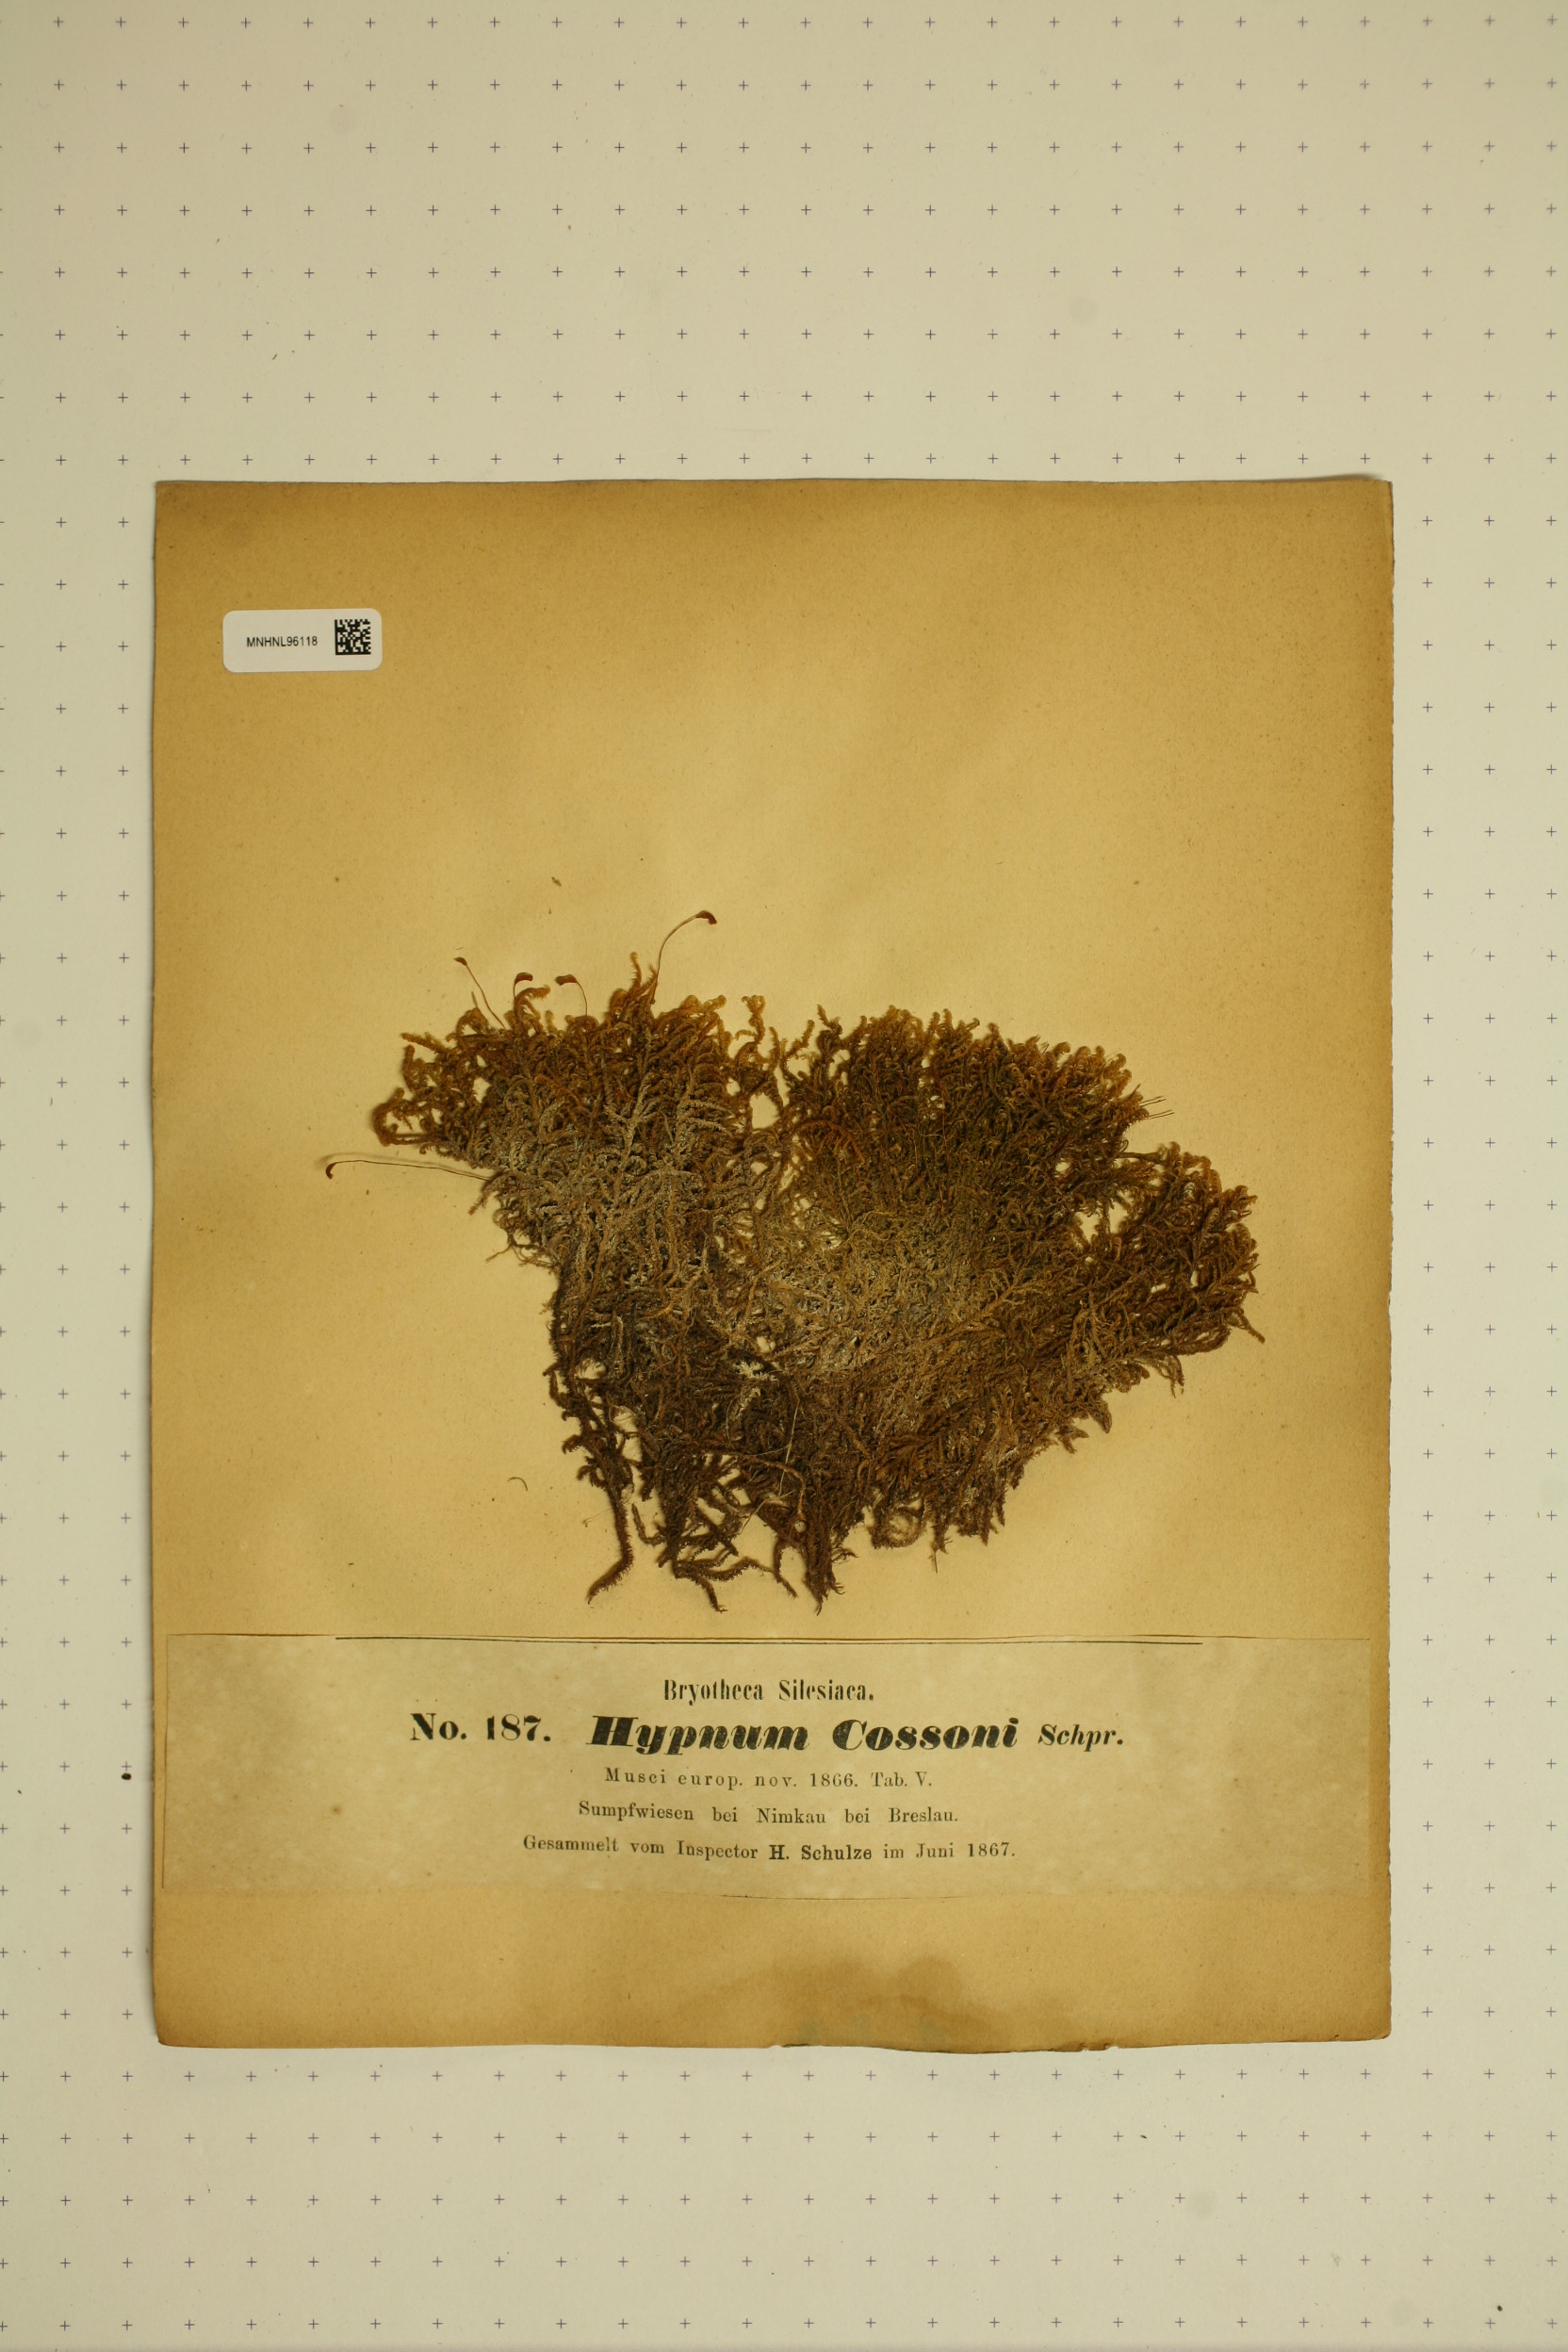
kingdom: Plantae
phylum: Bryophyta
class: Bryopsida
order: Hypnales
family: Scorpidiaceae
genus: Scorpidium
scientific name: Scorpidium cossonii
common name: Cosson's hook moss
